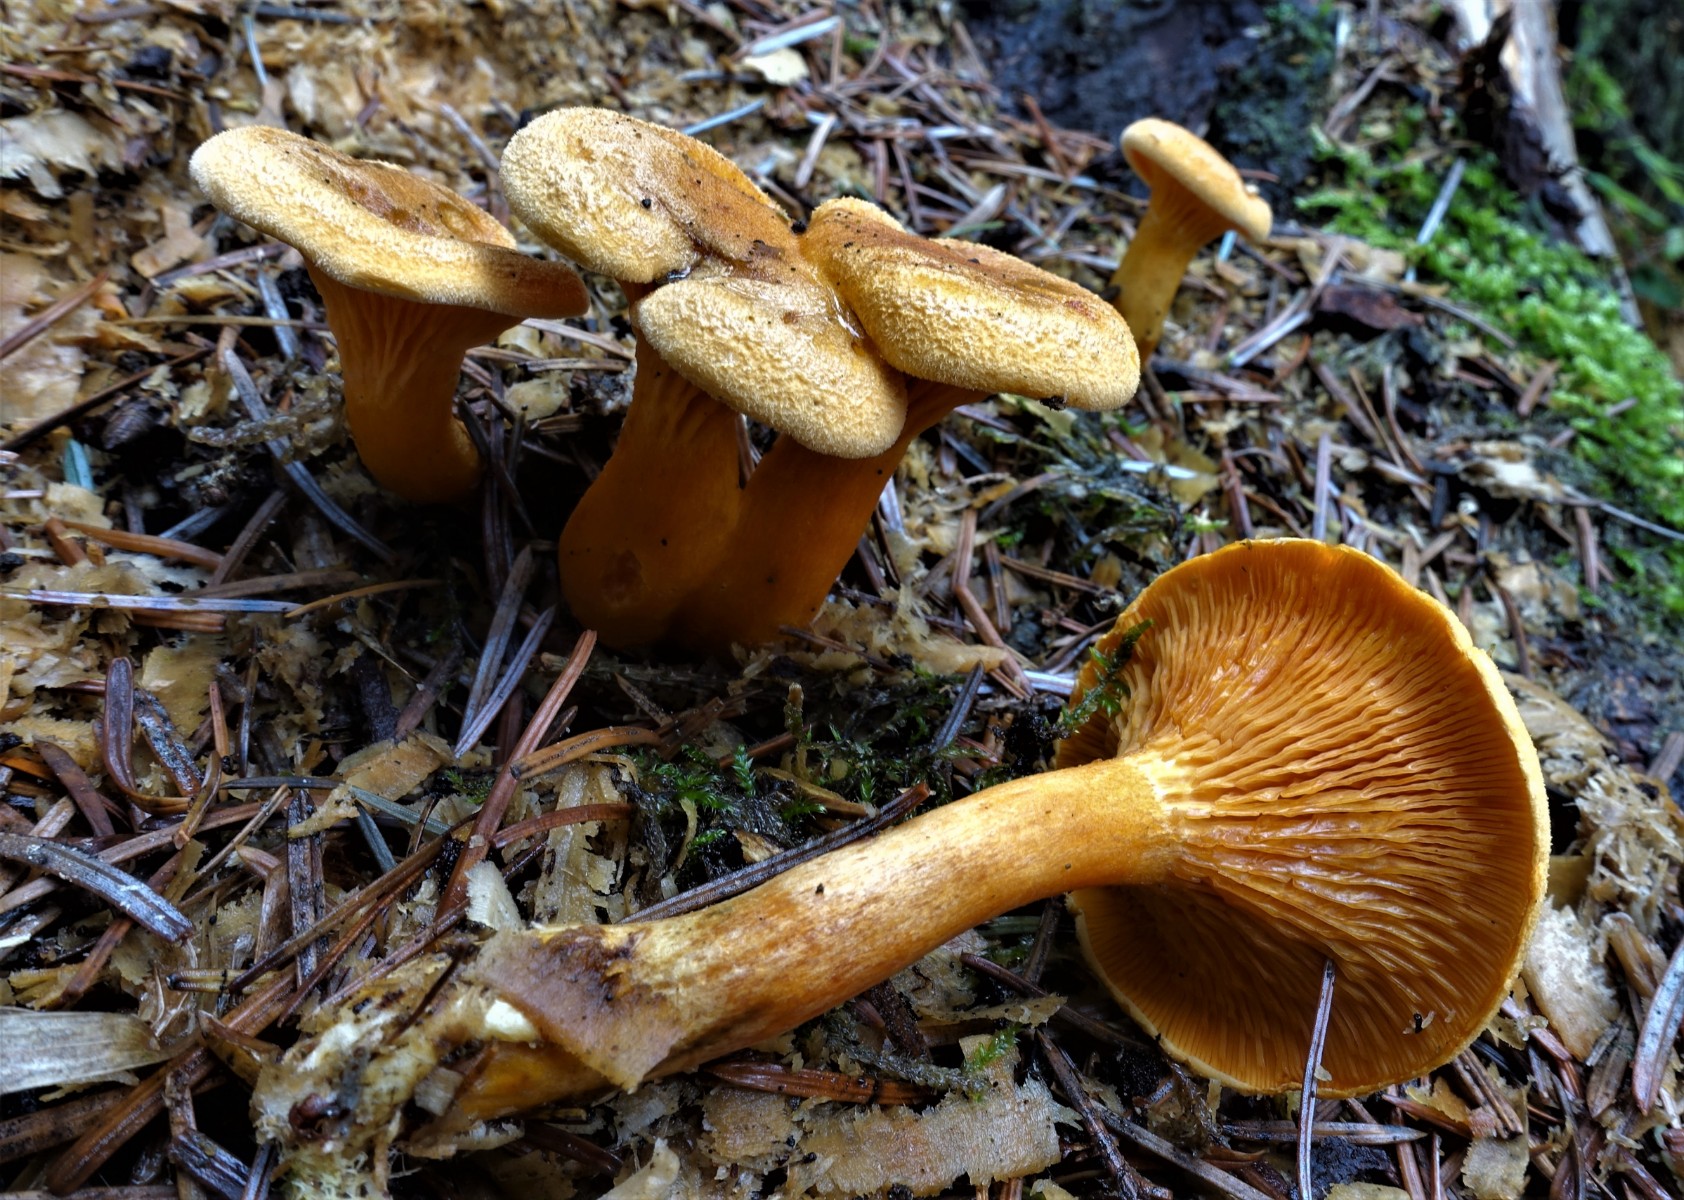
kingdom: Fungi
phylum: Basidiomycota
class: Agaricomycetes
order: Boletales
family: Hygrophoropsidaceae
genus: Hygrophoropsis
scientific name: Hygrophoropsis aurantiaca
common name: almindelig orangekantarel
